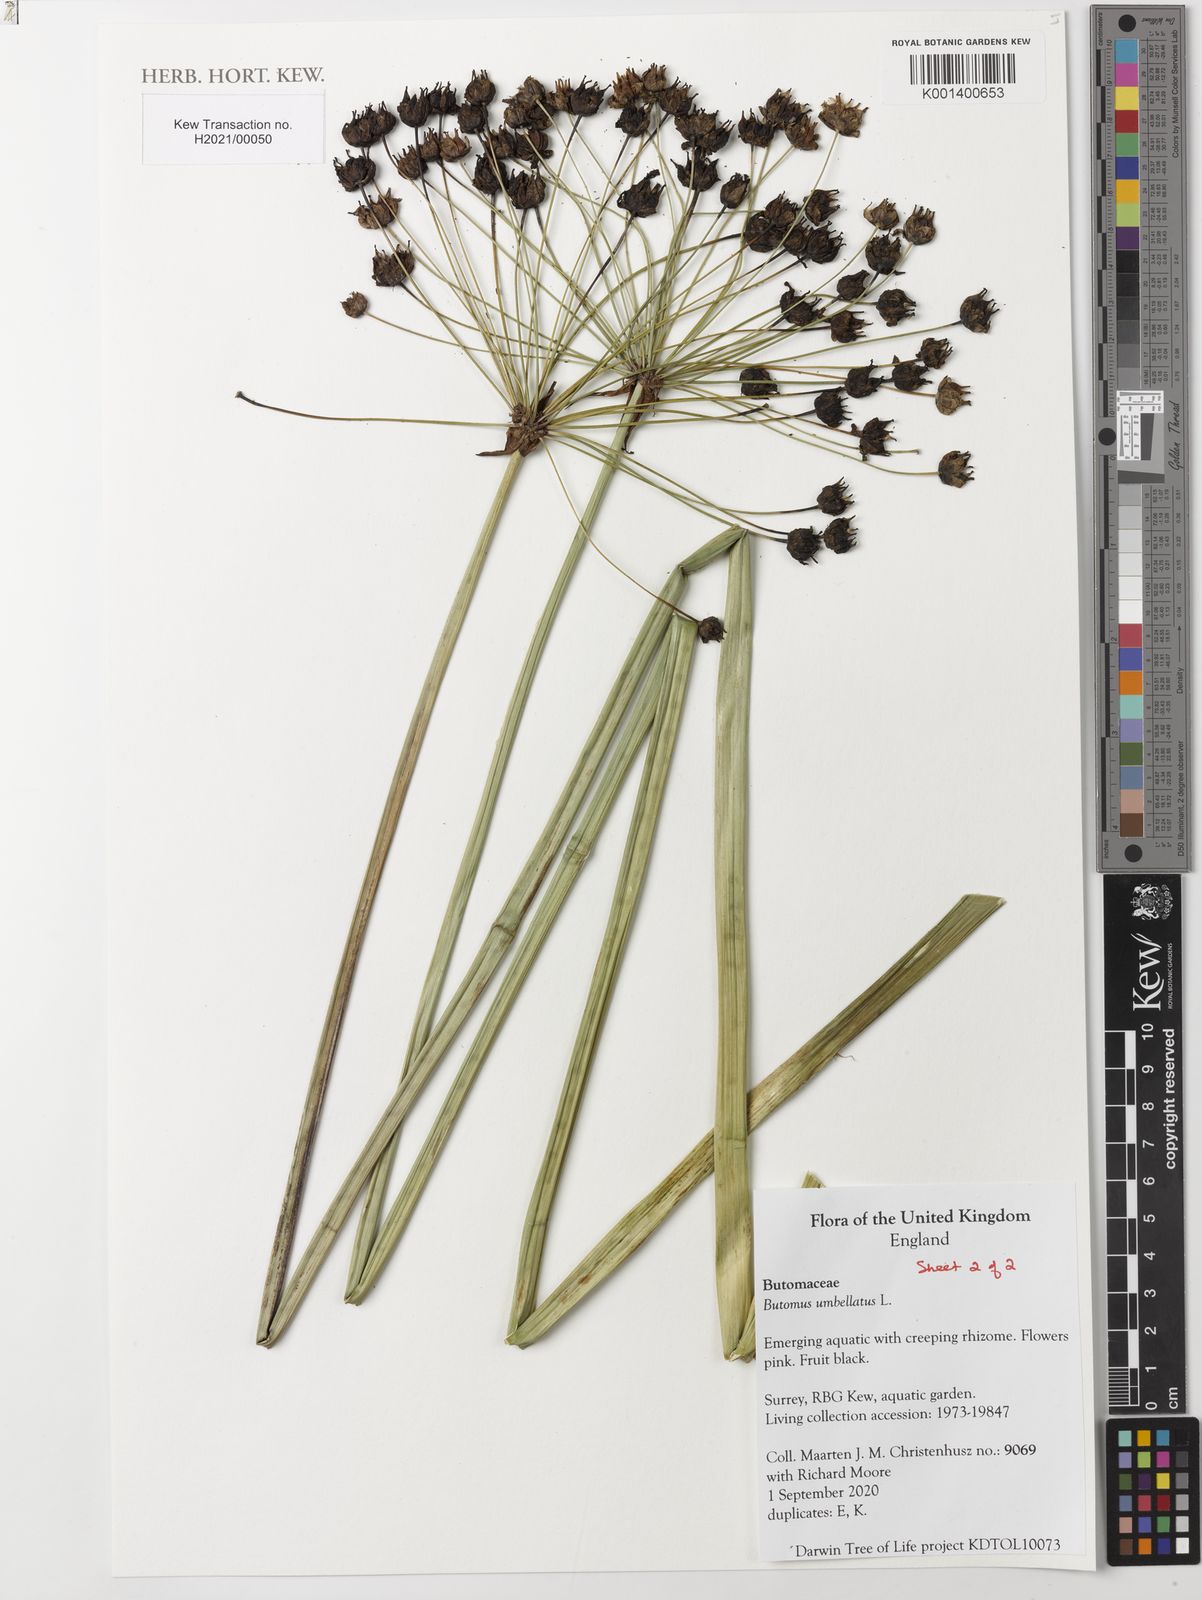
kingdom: Plantae
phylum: Tracheophyta
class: Liliopsida
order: Alismatales
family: Butomaceae
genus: Butomus
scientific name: Butomus umbellatus
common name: Flowering-rush
